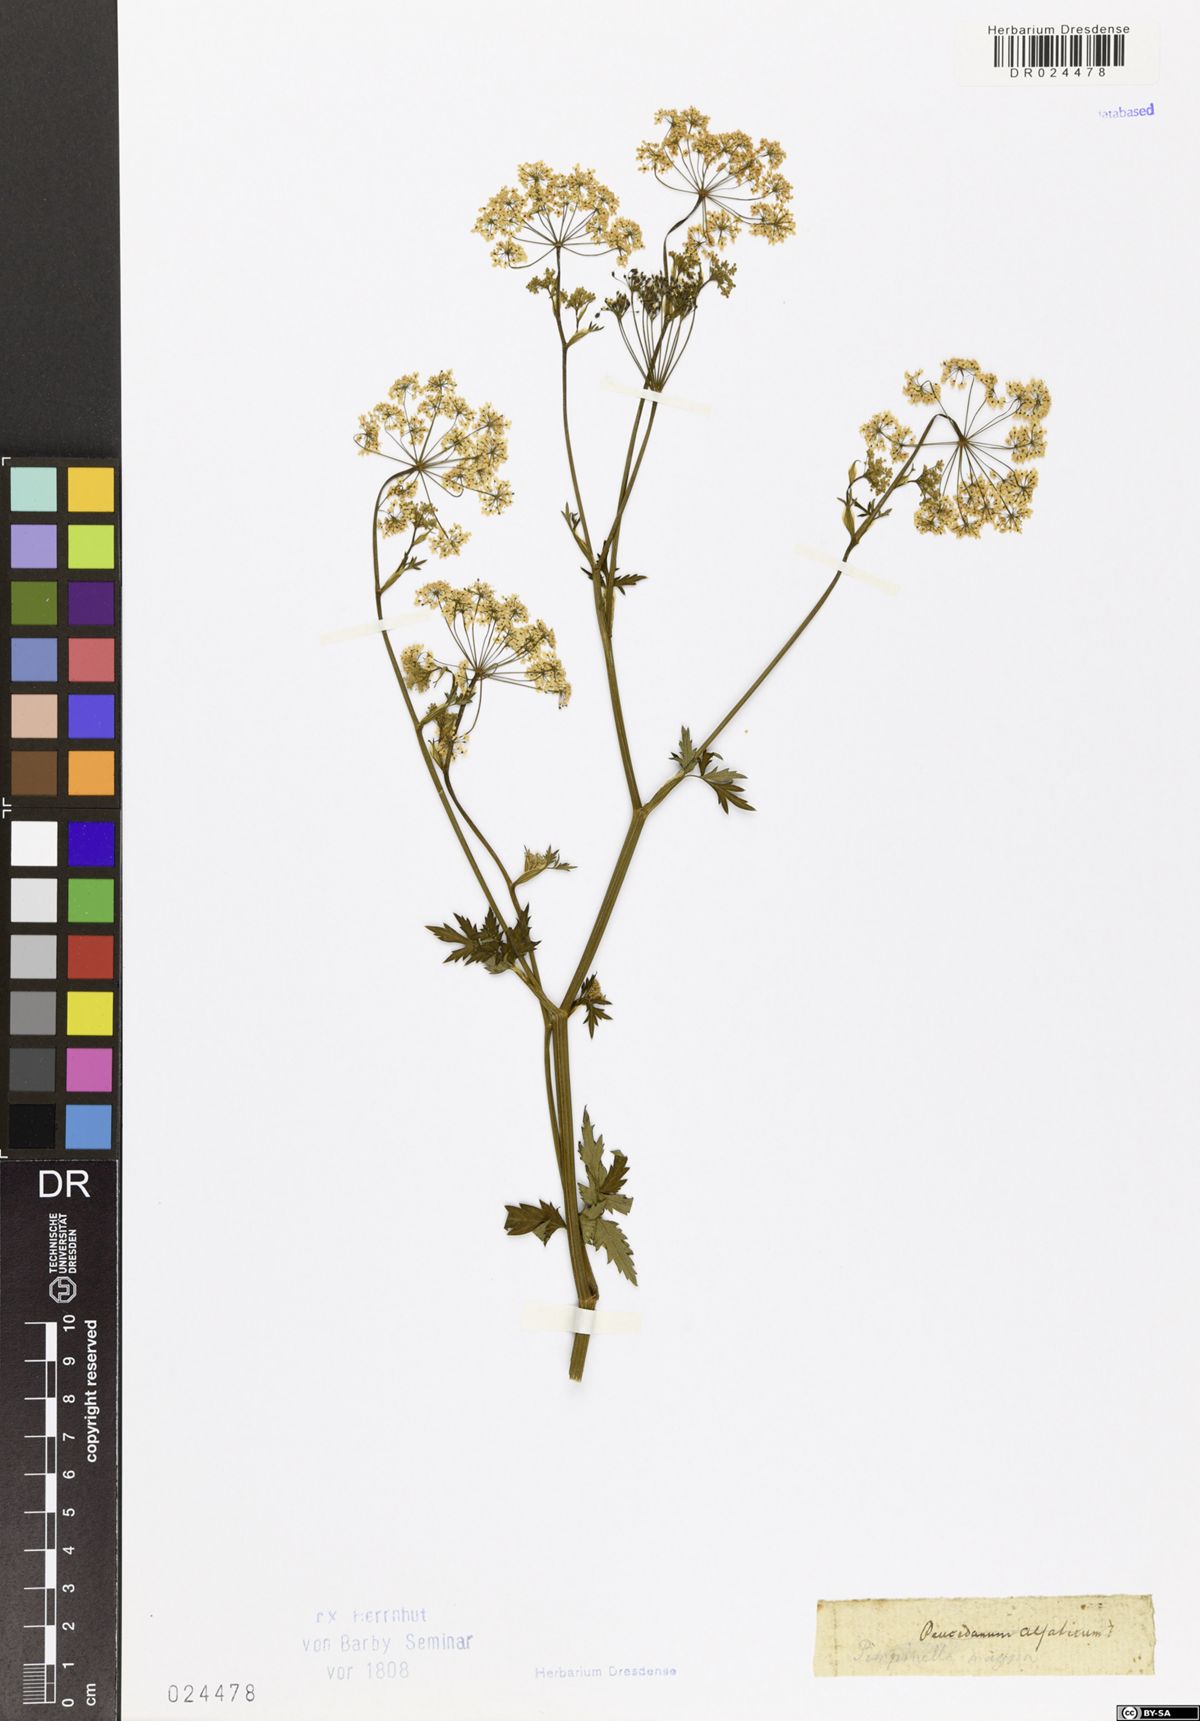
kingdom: Plantae
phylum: Tracheophyta
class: Magnoliopsida
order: Apiales
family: Apiaceae
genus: Pimpinella
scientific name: Pimpinella major
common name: Greater burnet-saxifrage
